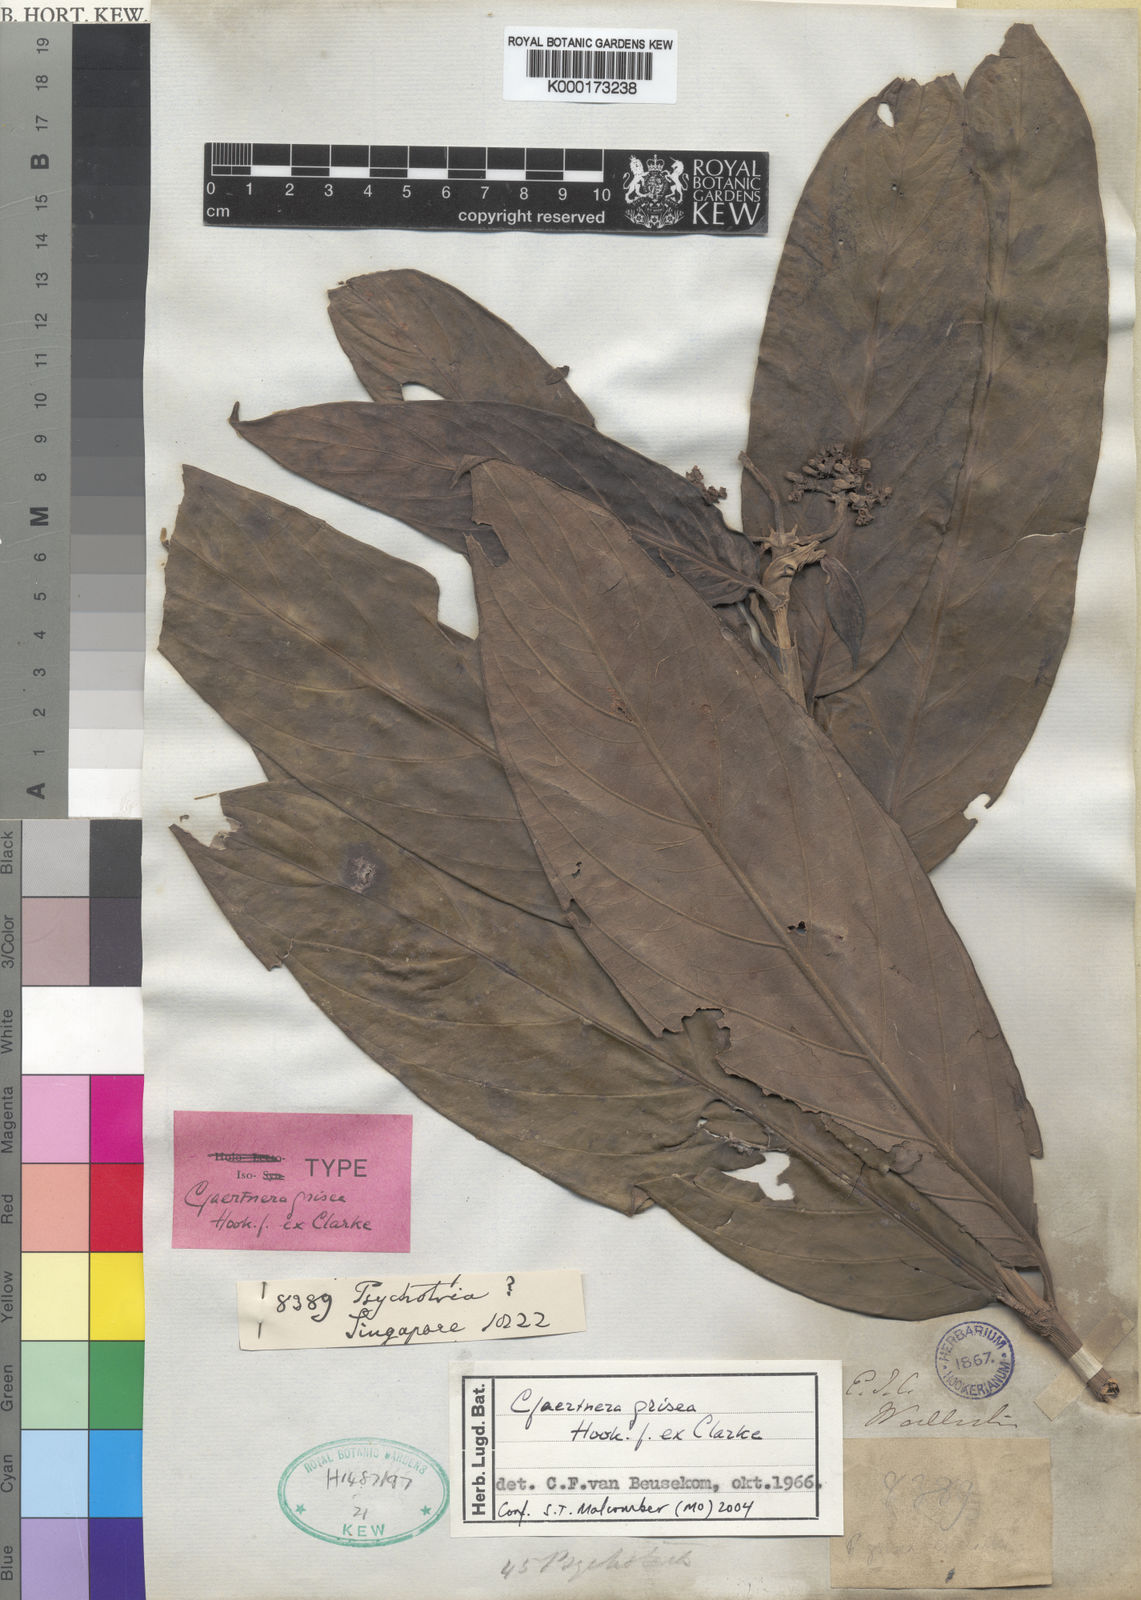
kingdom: Plantae
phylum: Tracheophyta
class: Magnoliopsida
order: Gentianales
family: Rubiaceae
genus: Gaertnera
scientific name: Gaertnera grisea
